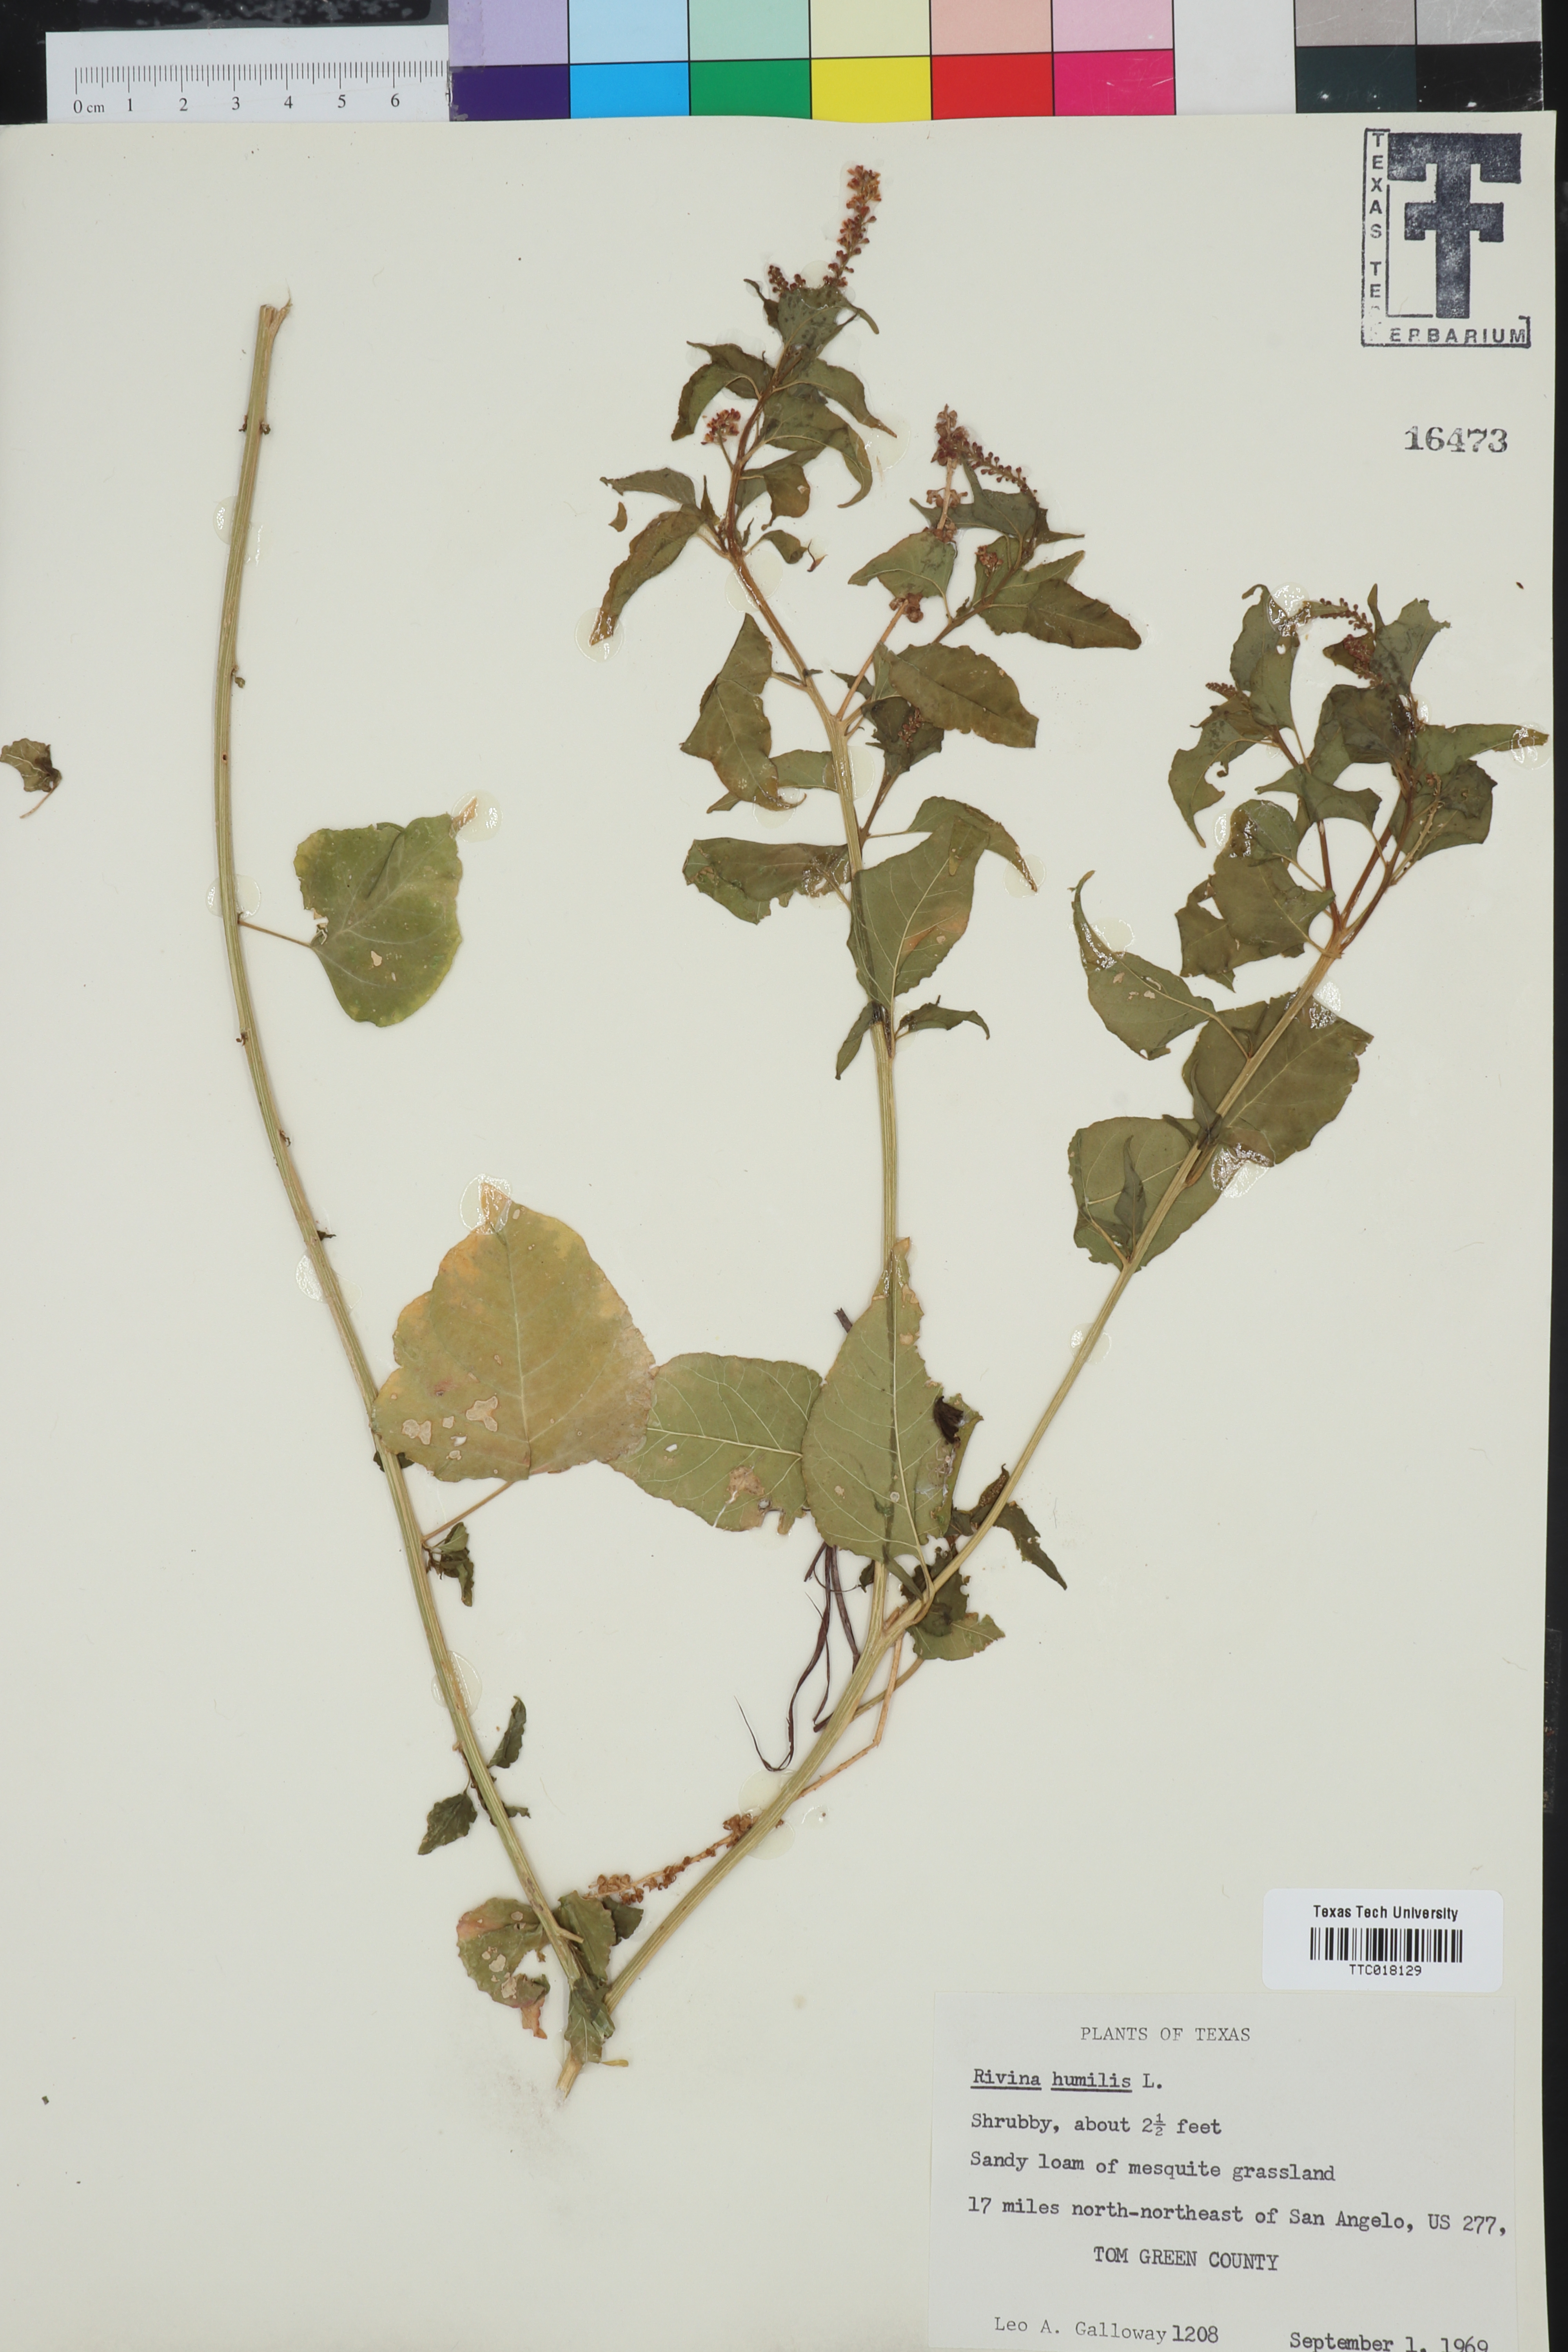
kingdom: Plantae
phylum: Tracheophyta
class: Magnoliopsida
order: Caryophyllales
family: Phytolaccaceae
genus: Rivina
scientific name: Rivina humilis
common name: Rougeplant
